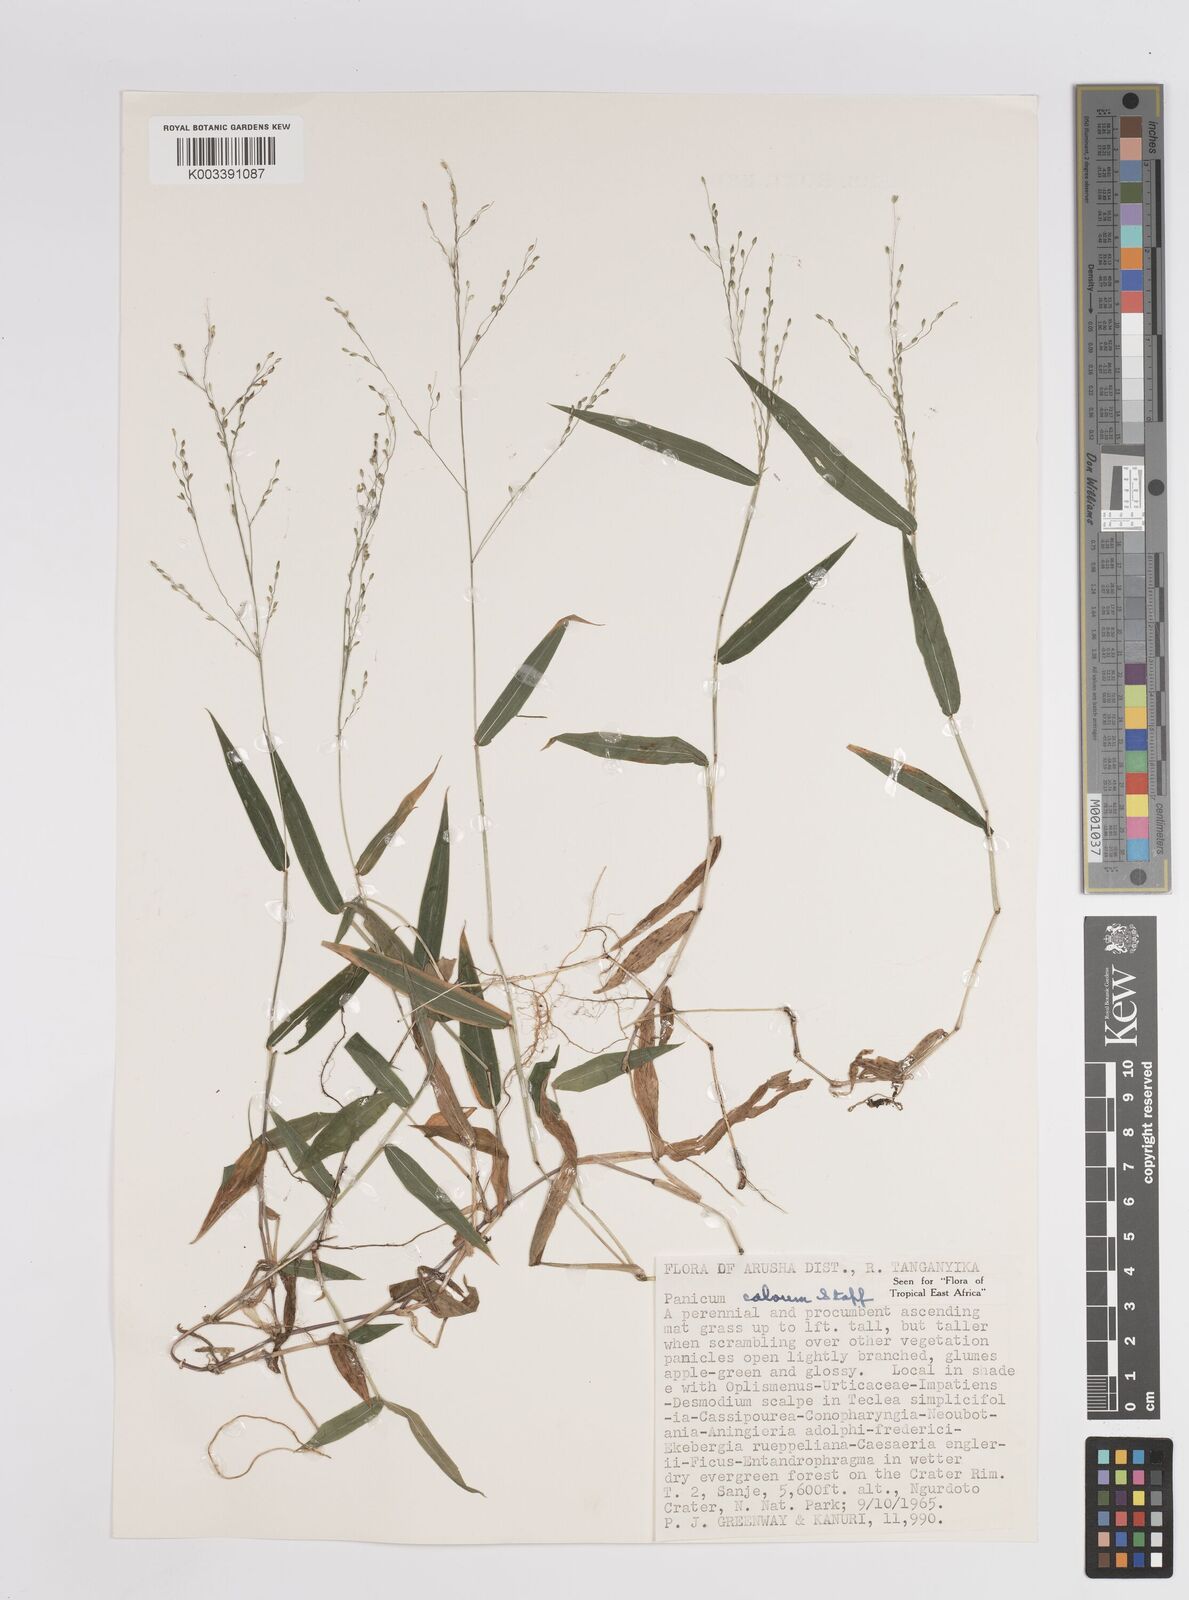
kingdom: Plantae
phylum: Tracheophyta
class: Liliopsida
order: Poales
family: Poaceae
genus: Panicum
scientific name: Panicum calvum
